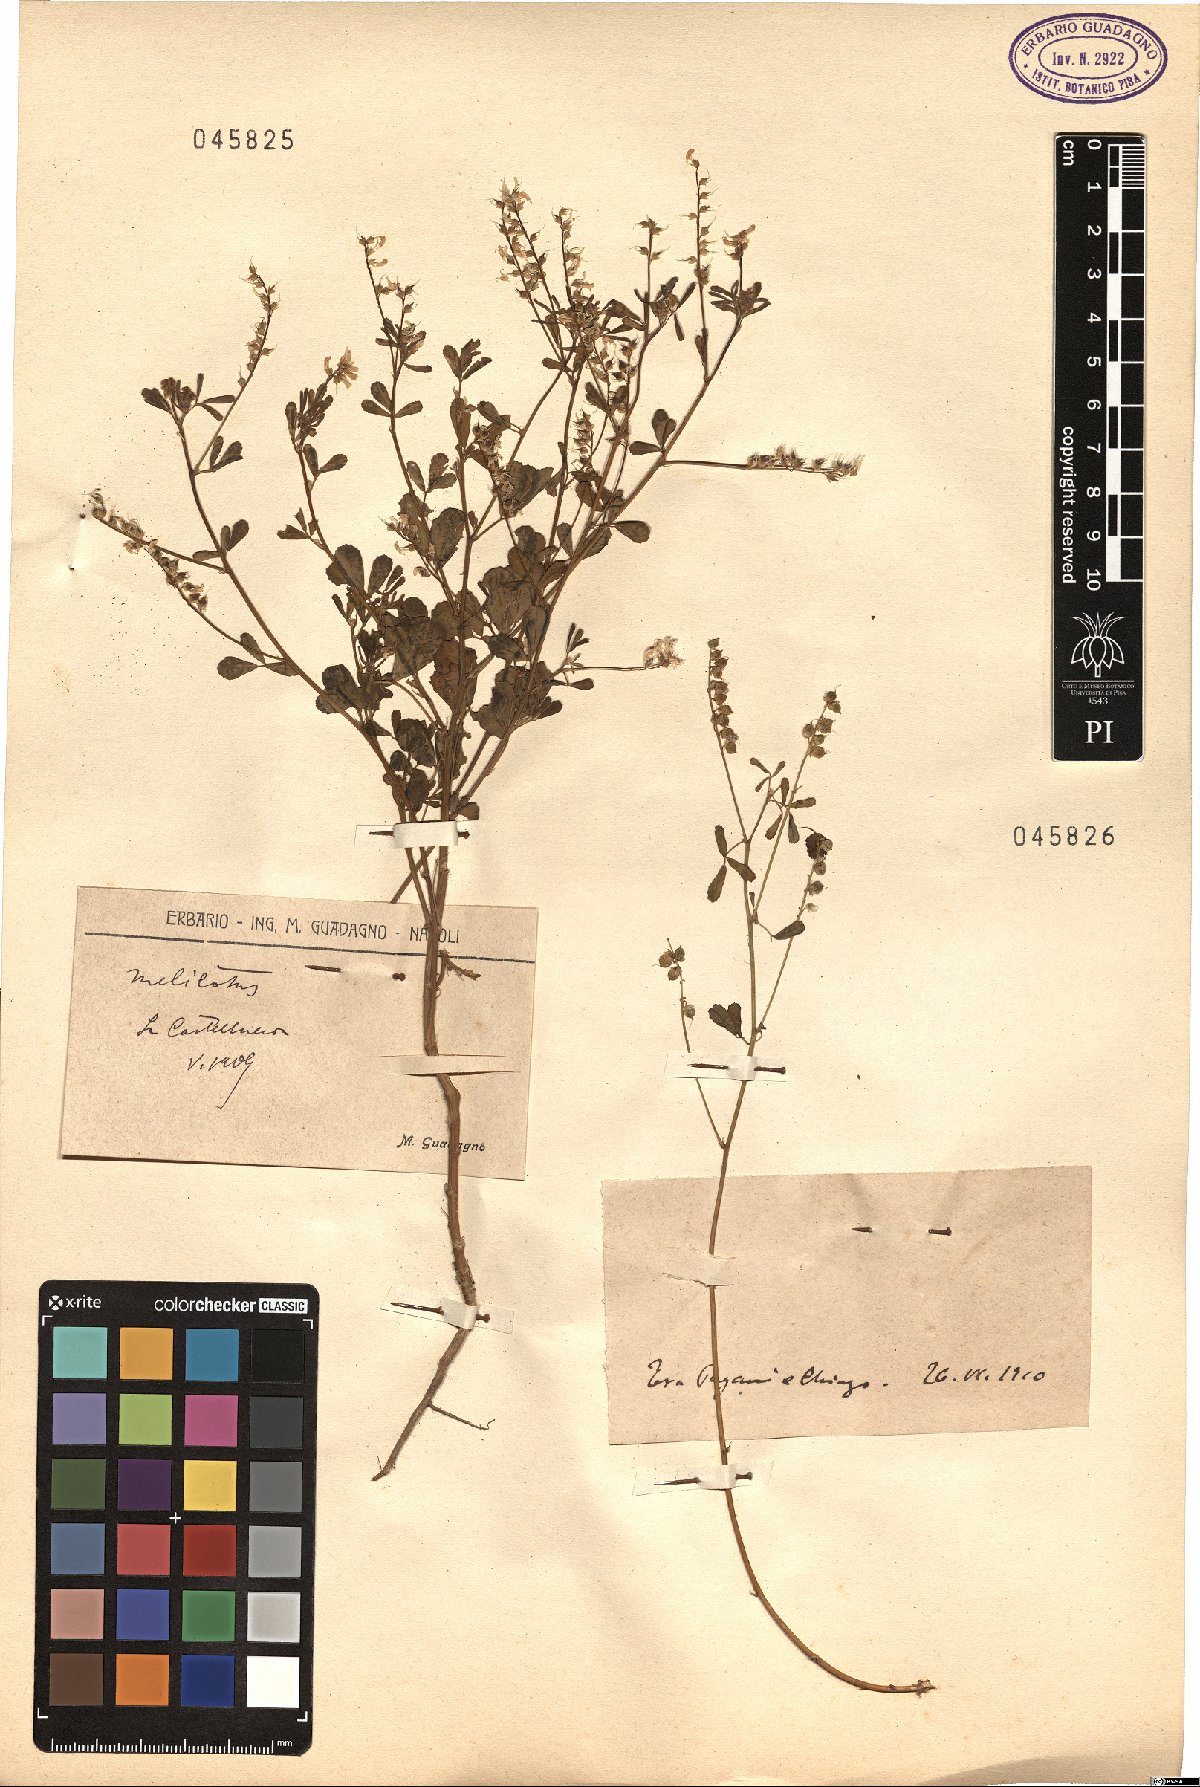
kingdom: Plantae
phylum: Tracheophyta
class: Magnoliopsida
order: Fabales
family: Fabaceae
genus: Melilotus
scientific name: Melilotus
